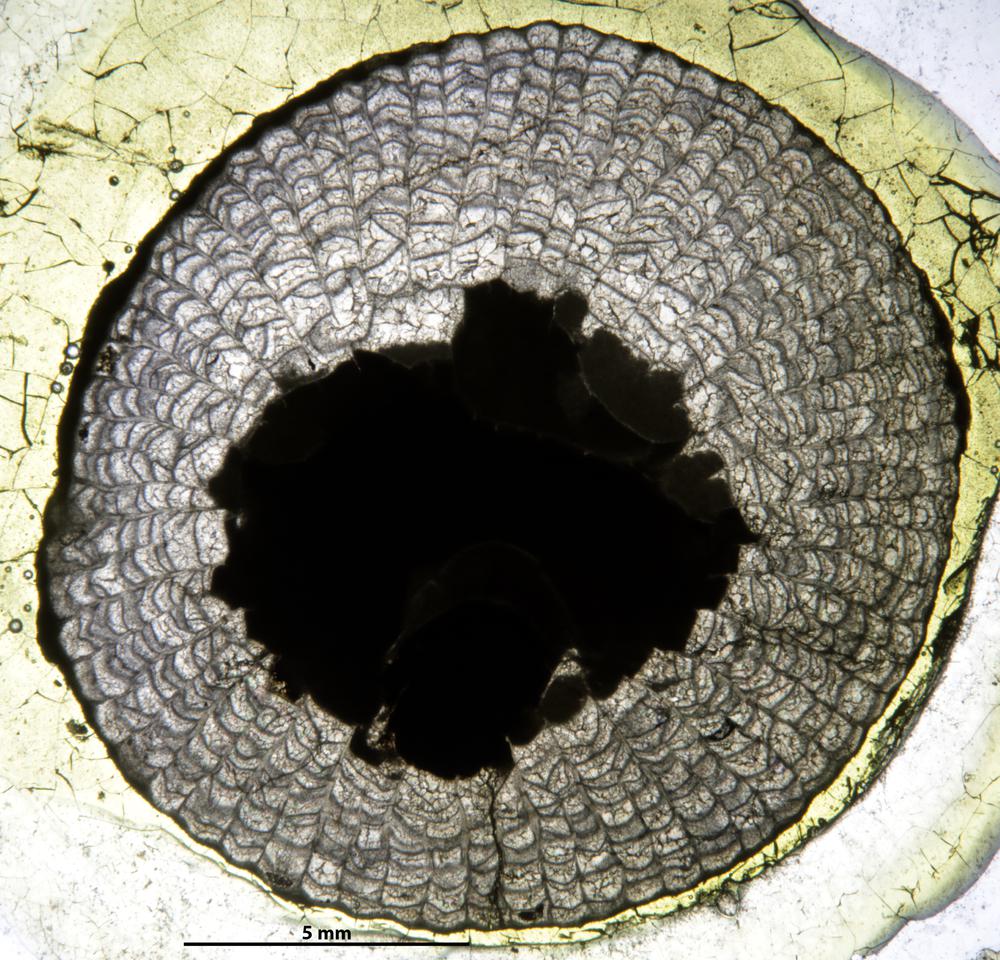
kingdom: Animalia
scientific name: Animalia
